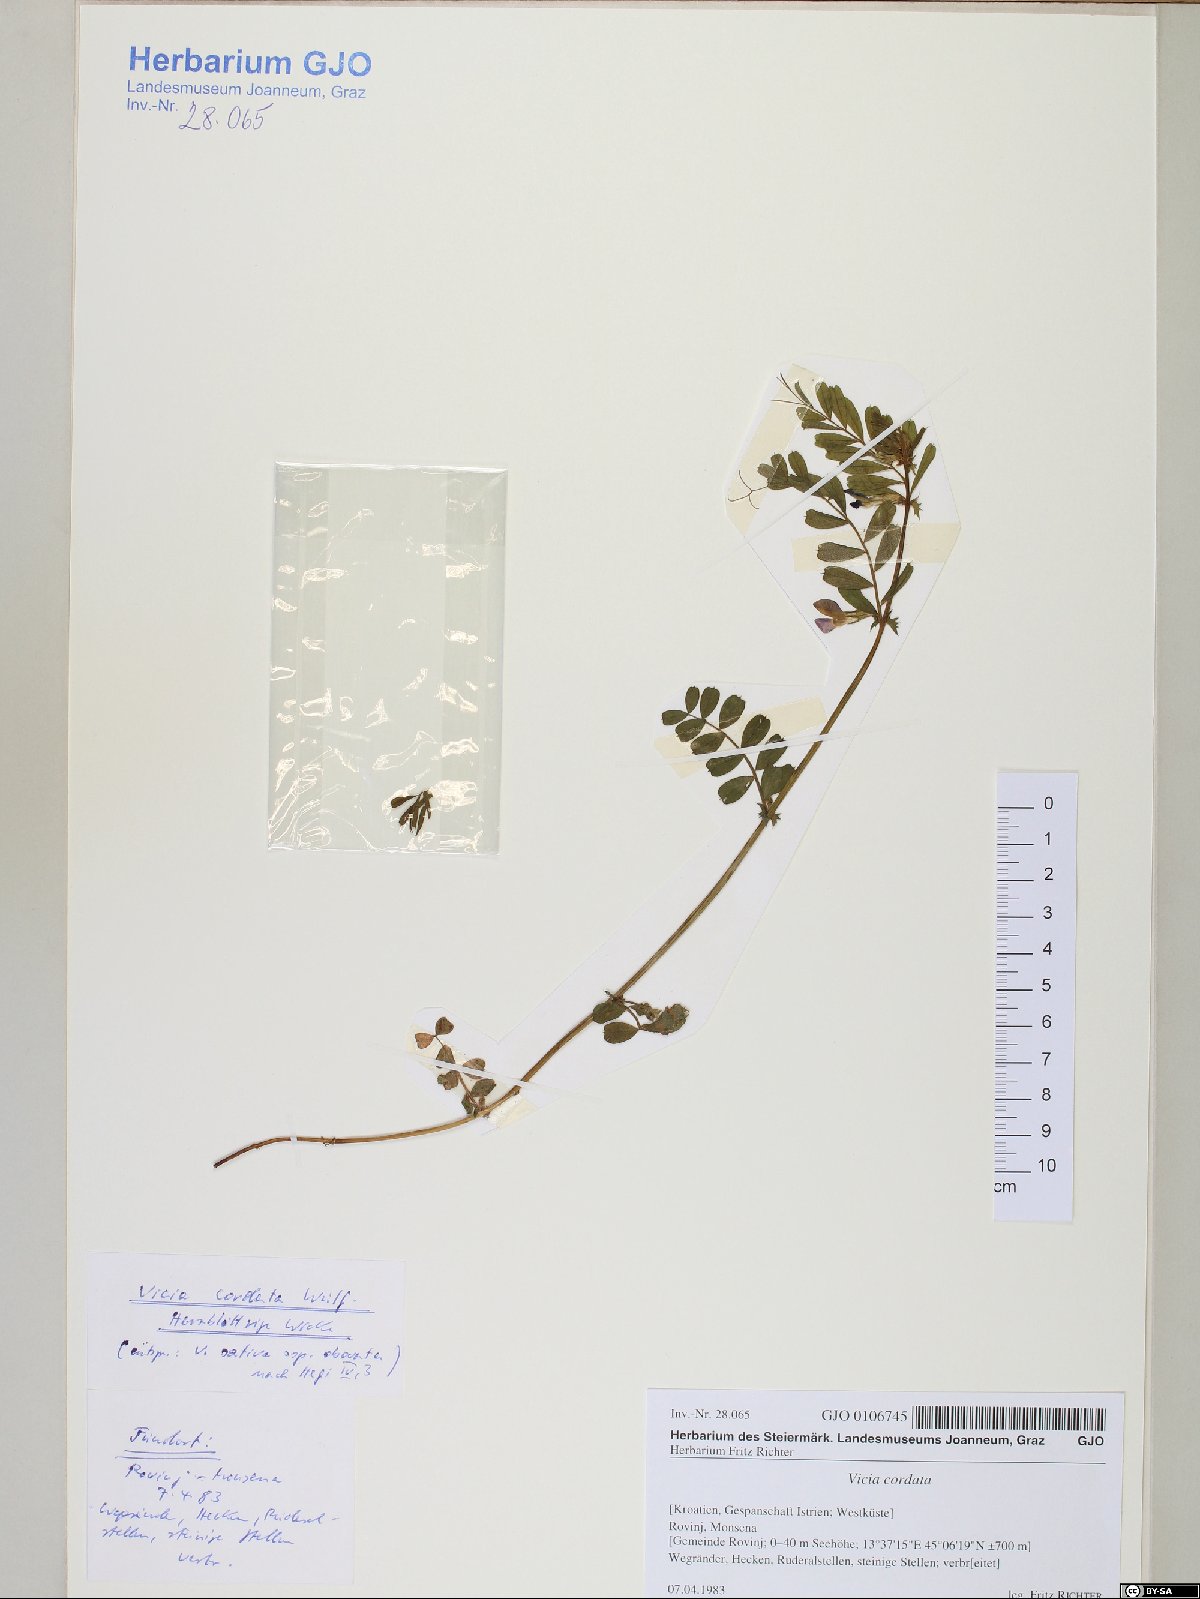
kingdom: Plantae
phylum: Tracheophyta
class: Magnoliopsida
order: Fabales
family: Fabaceae
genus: Vicia
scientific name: Vicia sativa
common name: Garden vetch
